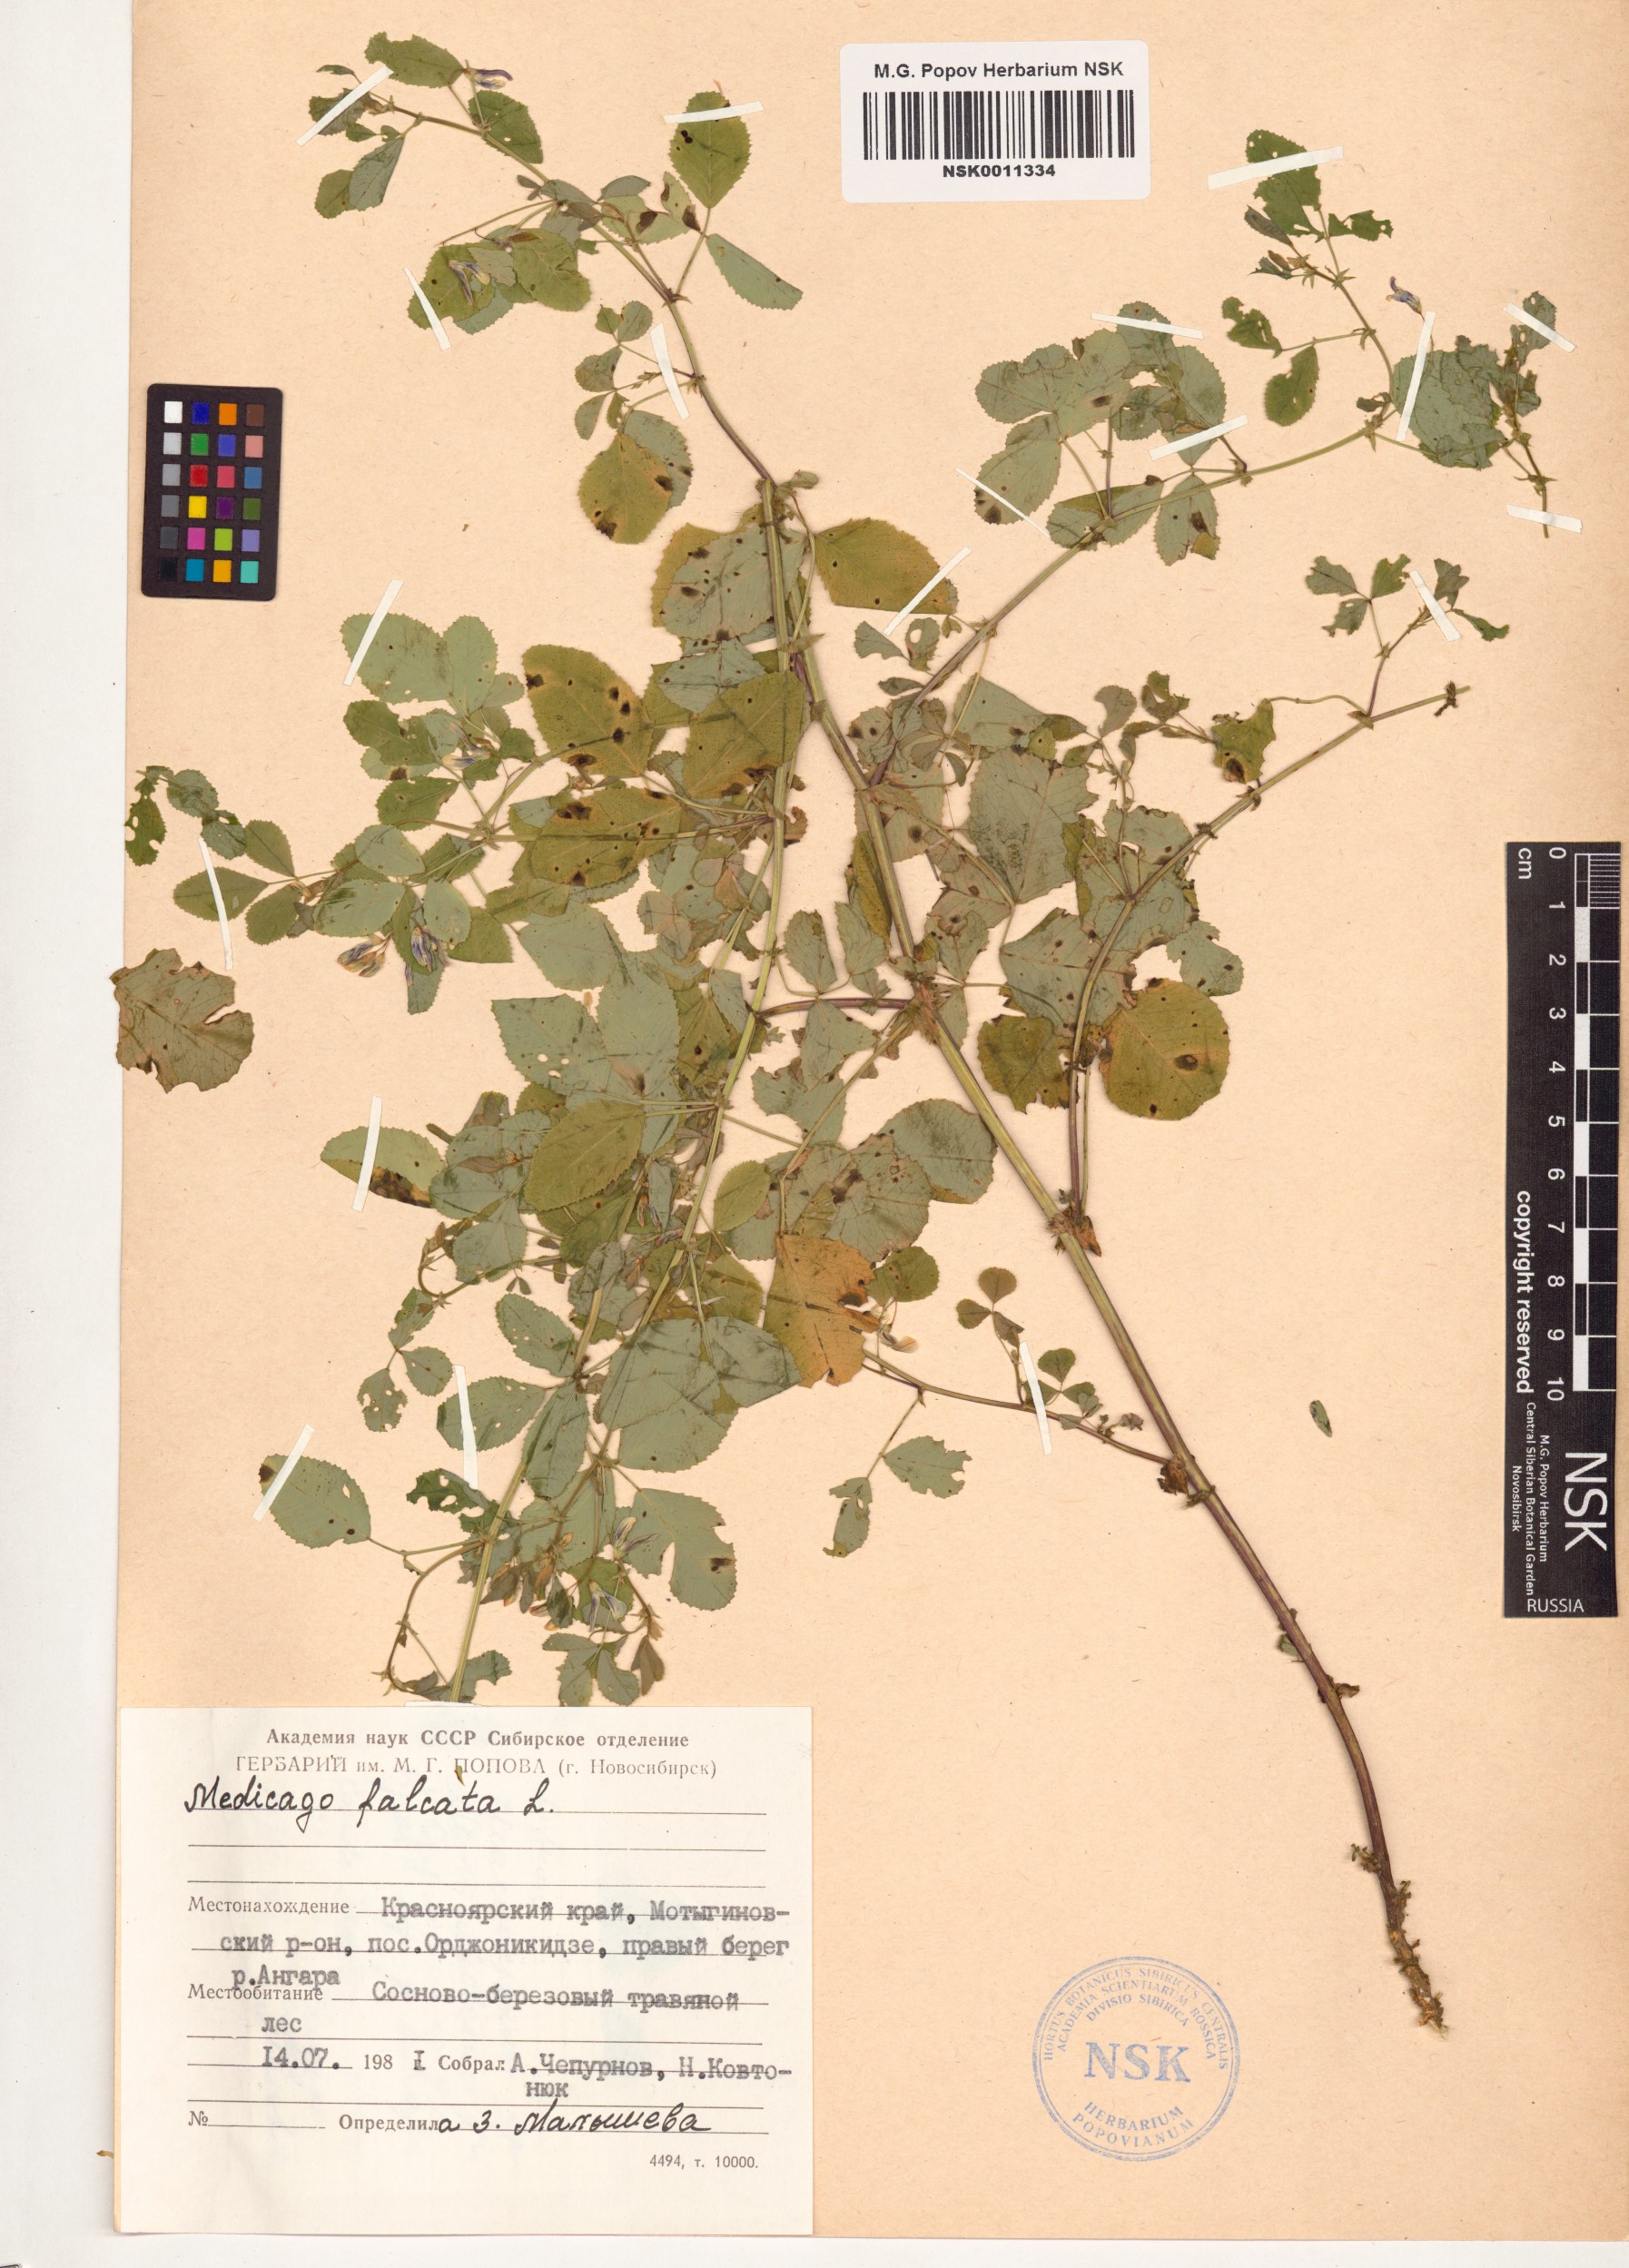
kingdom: Plantae
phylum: Tracheophyta
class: Magnoliopsida
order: Fabales
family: Fabaceae
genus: Medicago
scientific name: Medicago falcata
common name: Sickle medick
